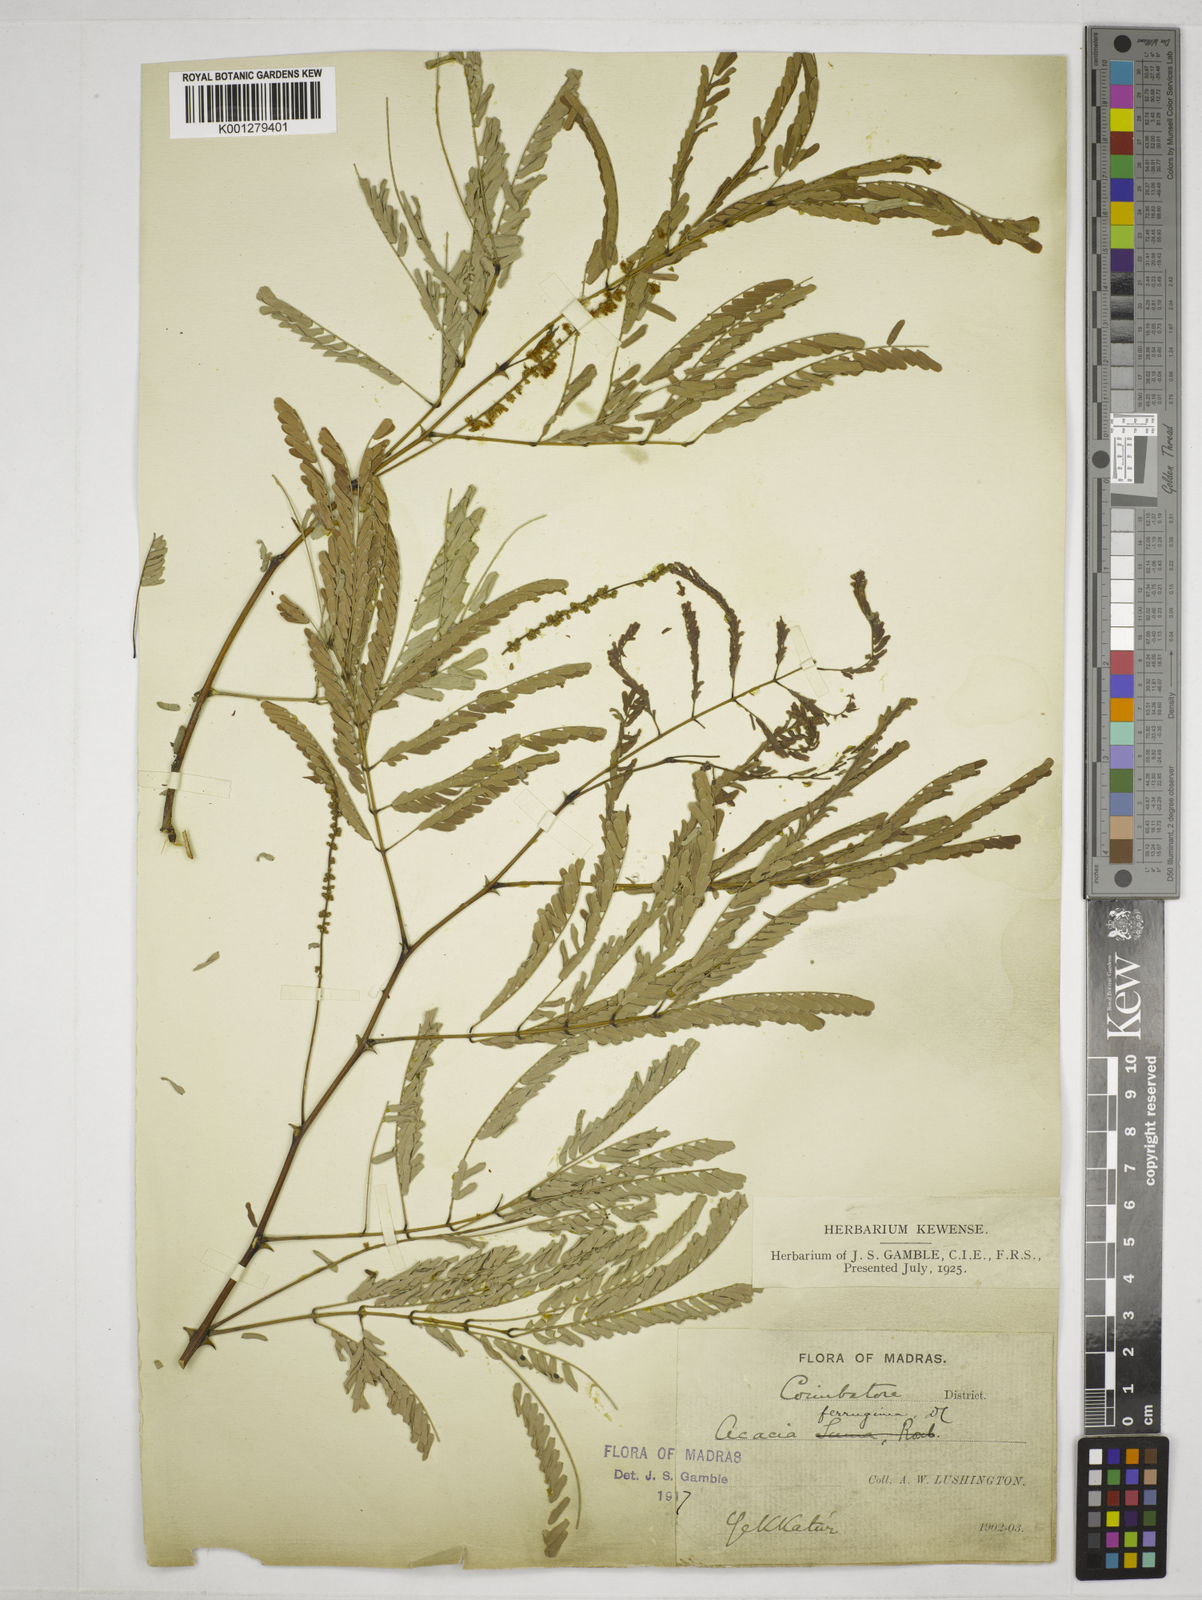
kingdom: Plantae
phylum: Tracheophyta
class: Magnoliopsida
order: Fabales
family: Fabaceae
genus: Senegalia
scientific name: Senegalia ferruginea
